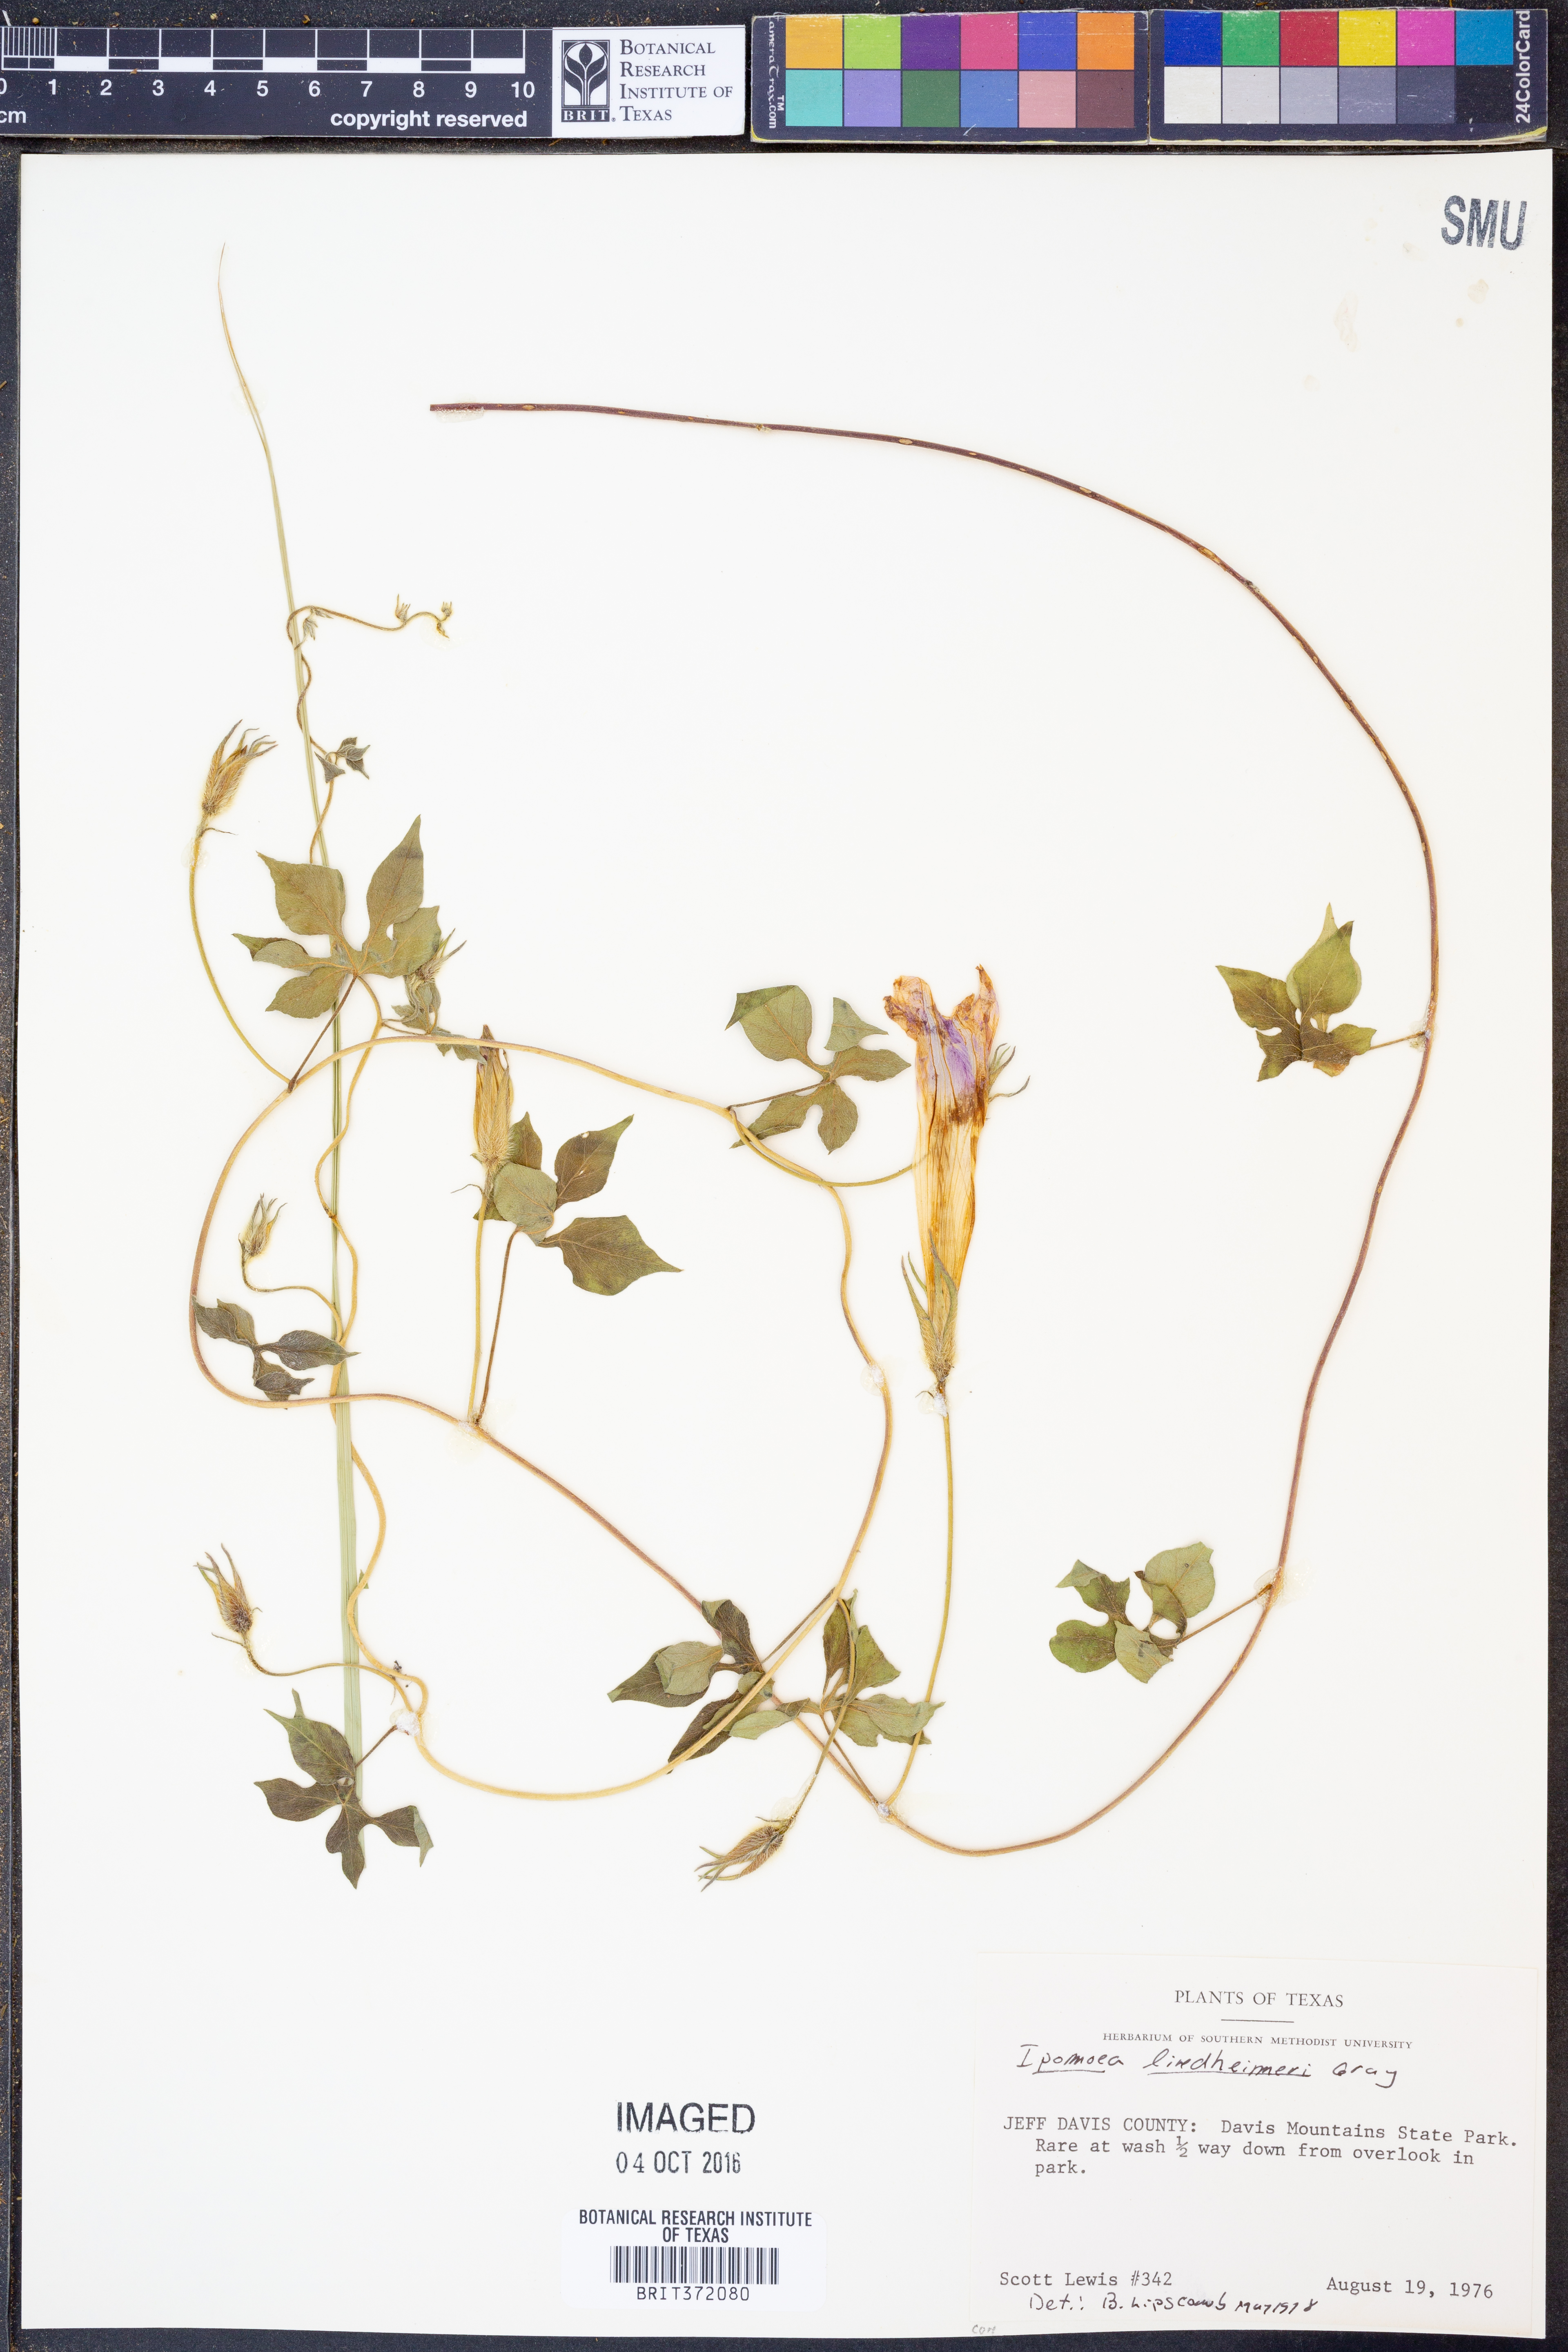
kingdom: Plantae
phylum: Tracheophyta
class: Magnoliopsida
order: Solanales
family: Convolvulaceae
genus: Ipomoea
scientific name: Ipomoea lindheimeri
